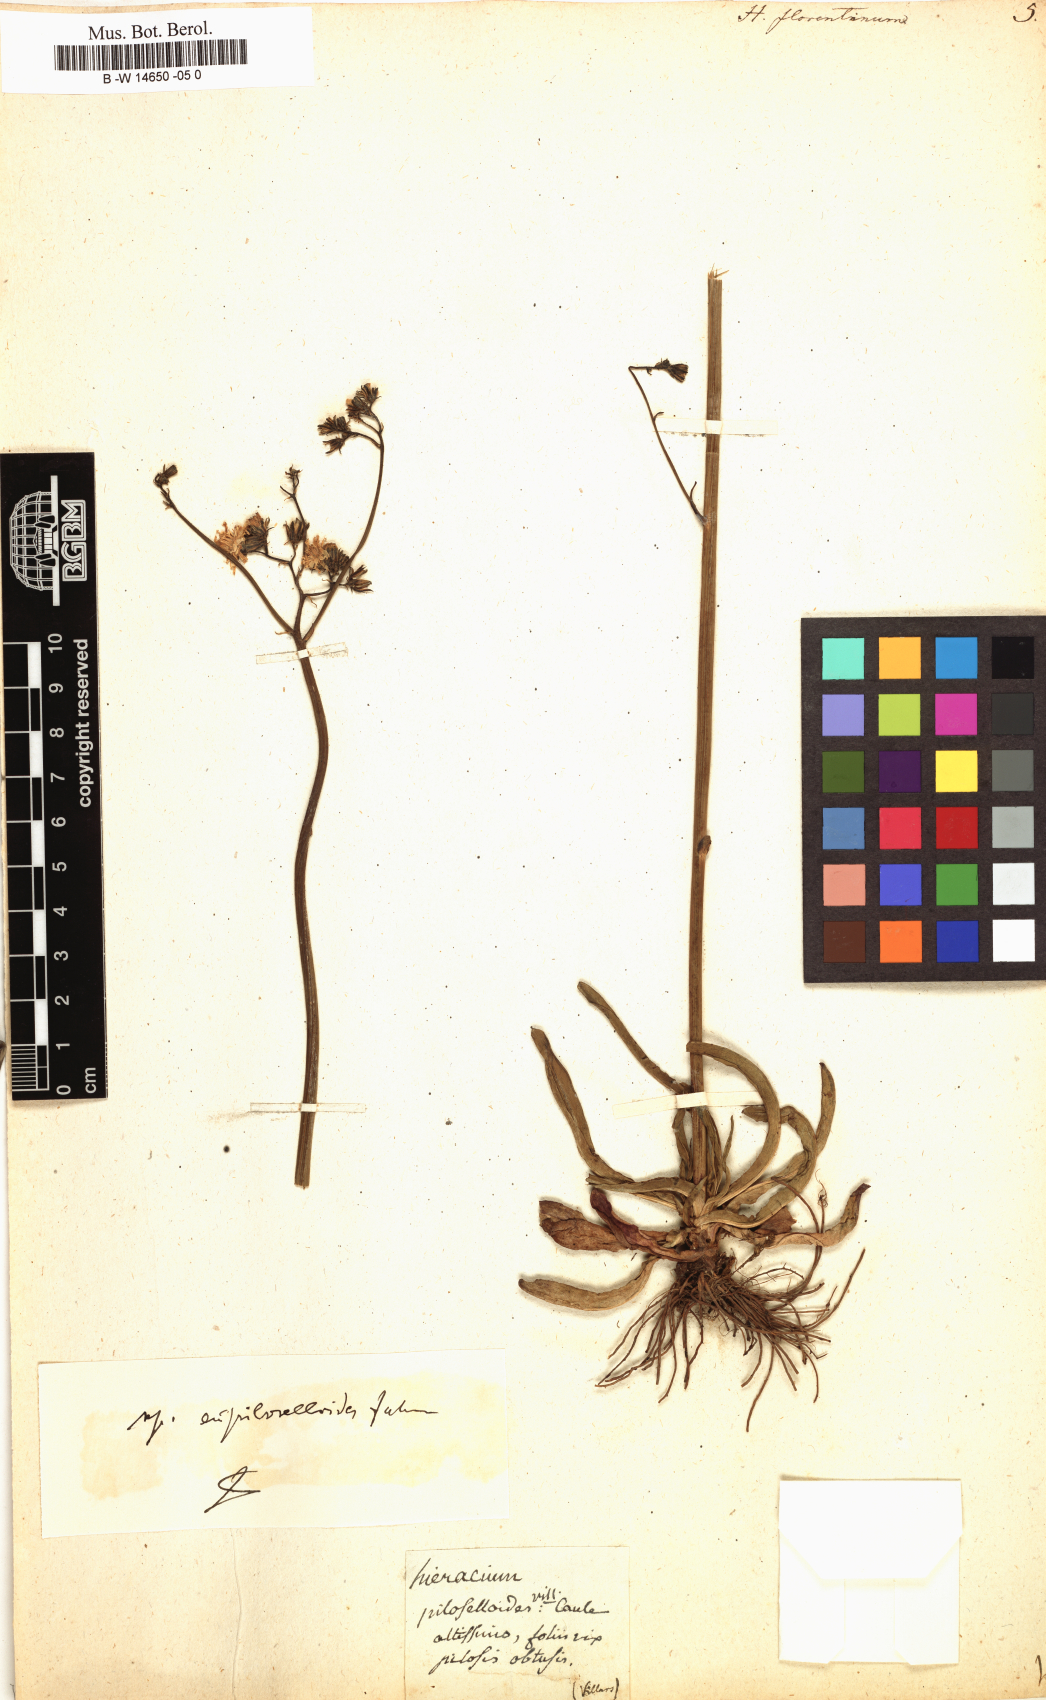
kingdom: Plantae
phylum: Tracheophyta
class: Magnoliopsida
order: Asterales
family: Asteraceae
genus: Hieracium
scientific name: Hieracium florentinum
